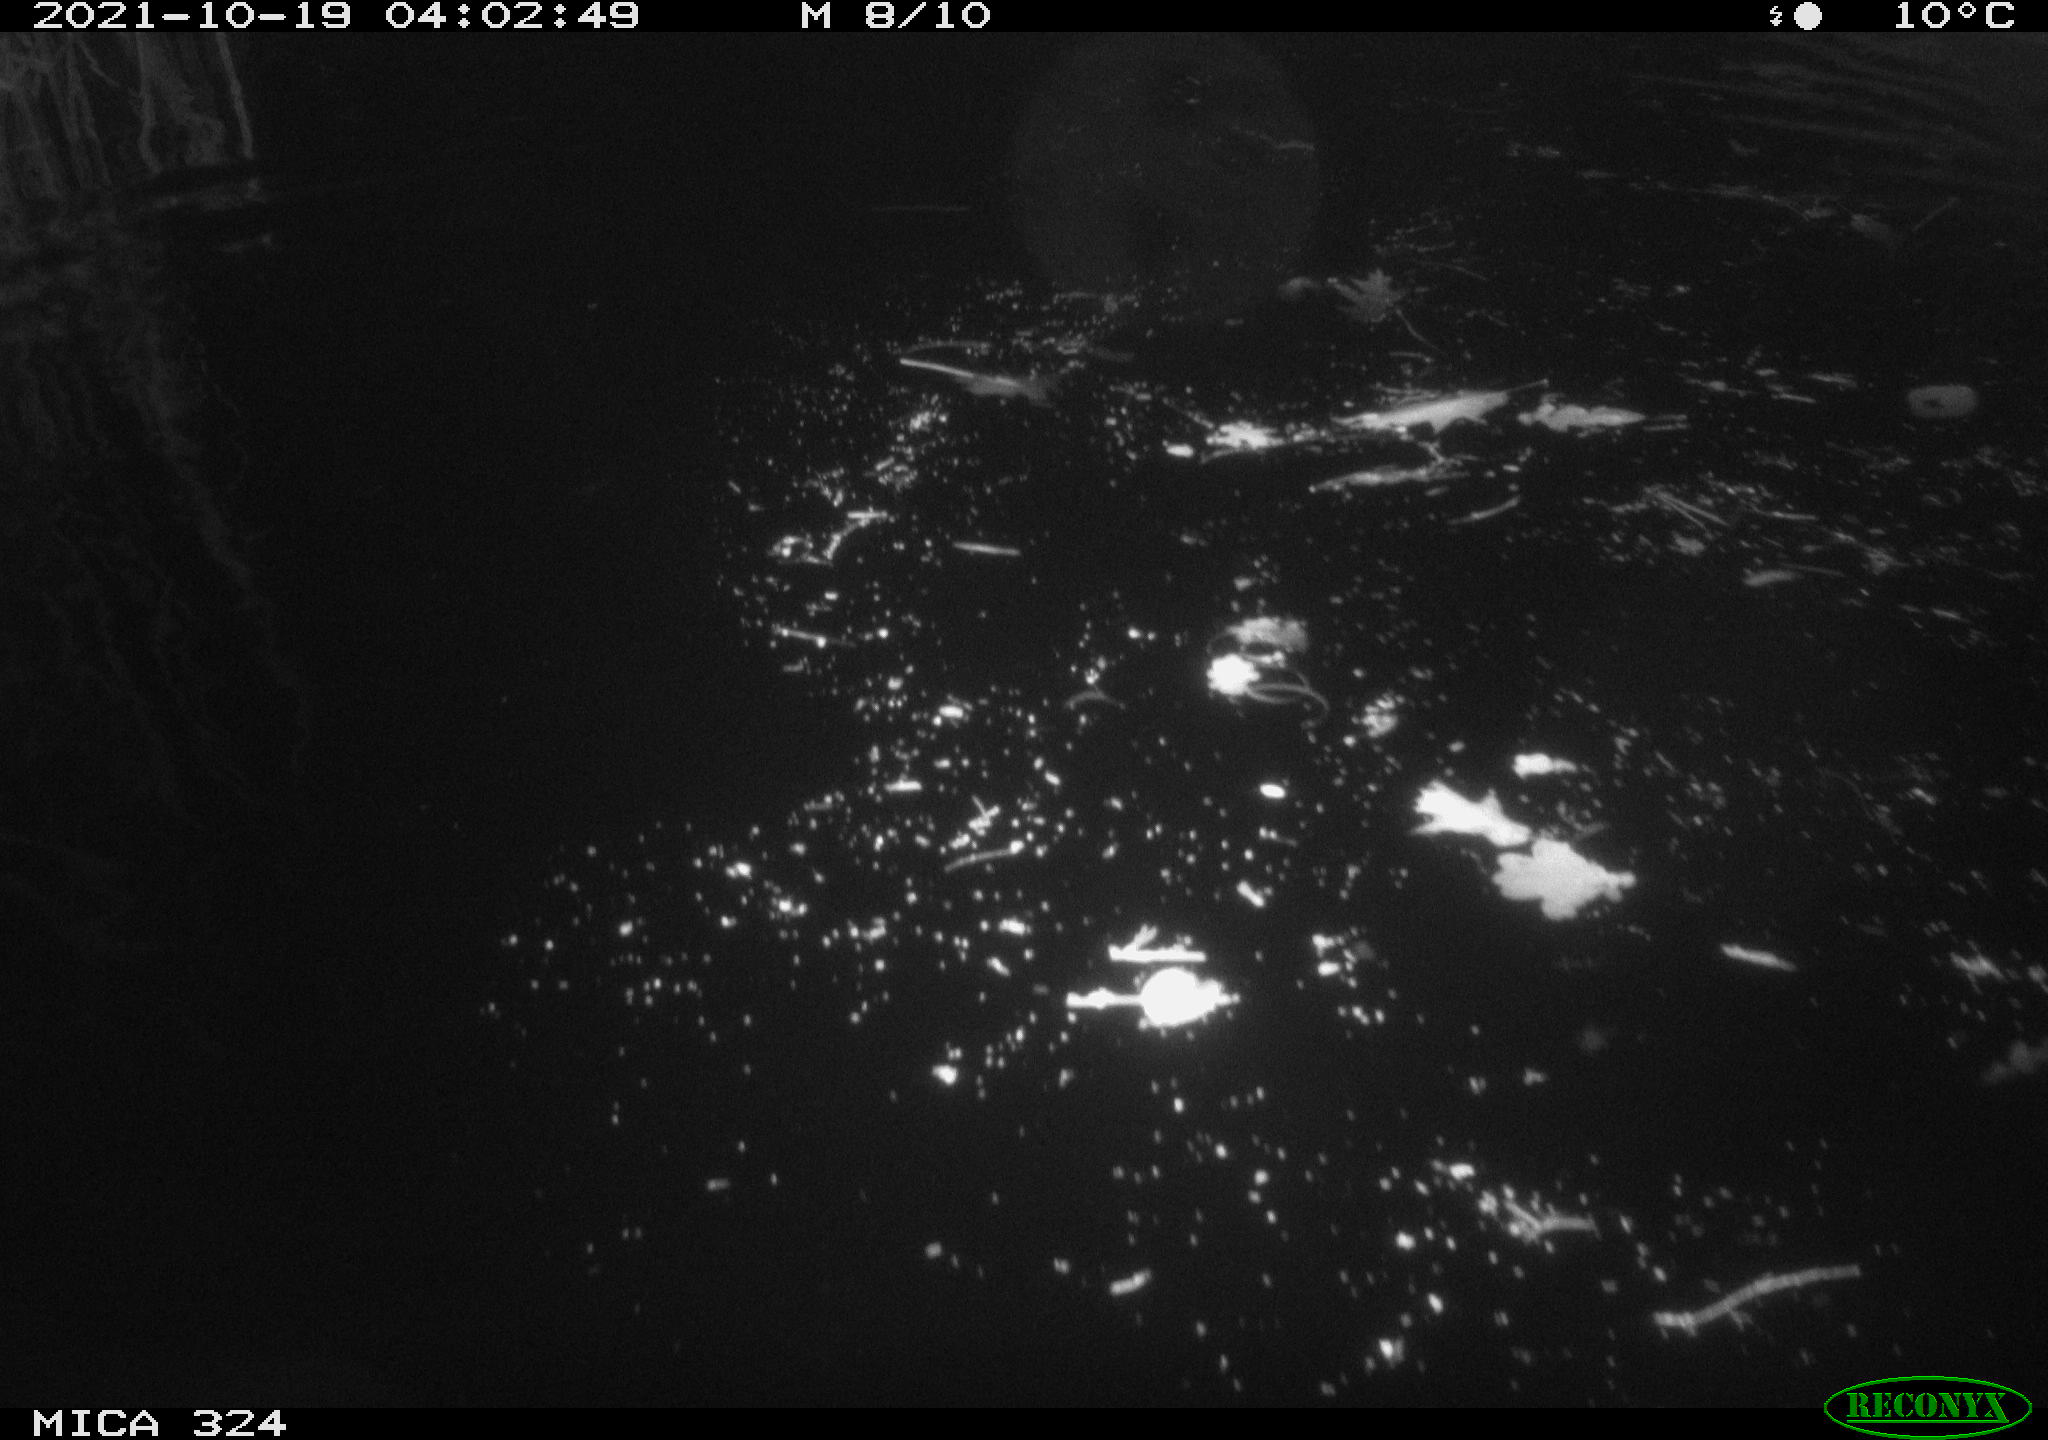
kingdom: Animalia
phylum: Chordata
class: Mammalia
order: Rodentia
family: Cricetidae
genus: Ondatra
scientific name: Ondatra zibethicus
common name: Muskrat
